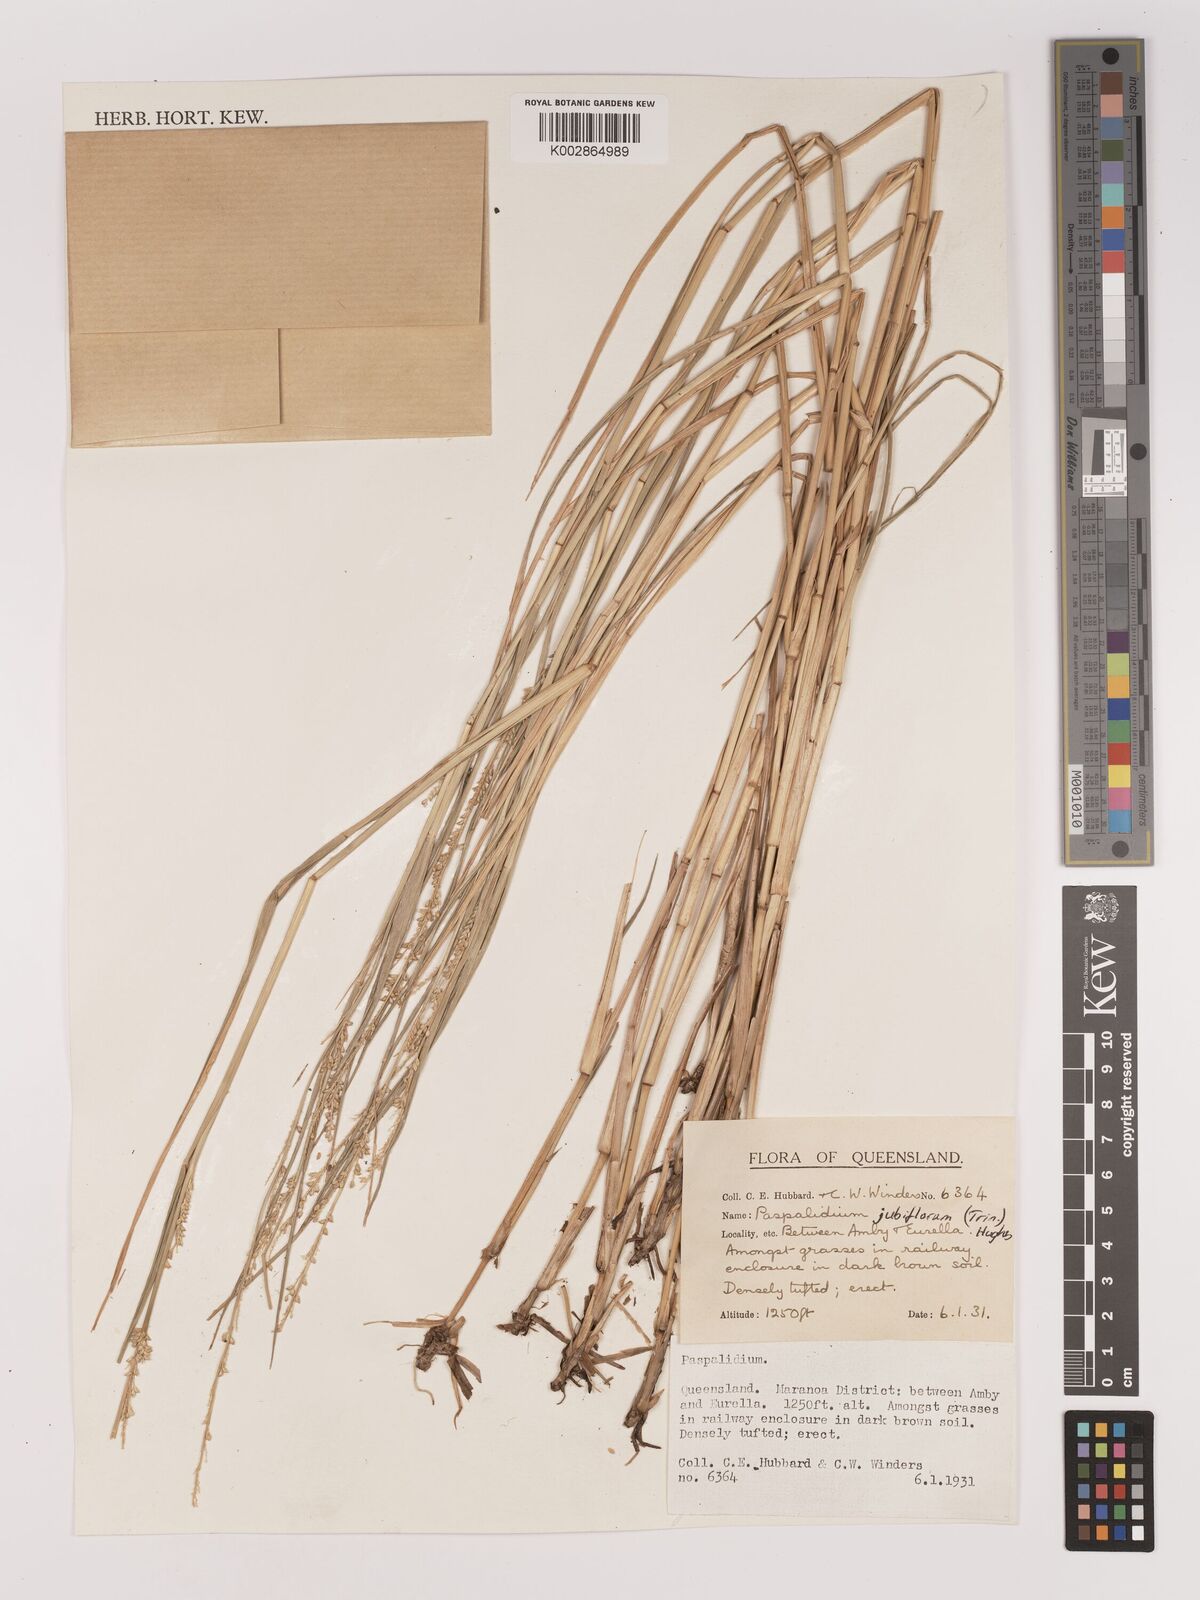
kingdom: Plantae
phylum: Tracheophyta
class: Liliopsida
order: Poales
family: Poaceae
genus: Setaria
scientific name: Setaria
